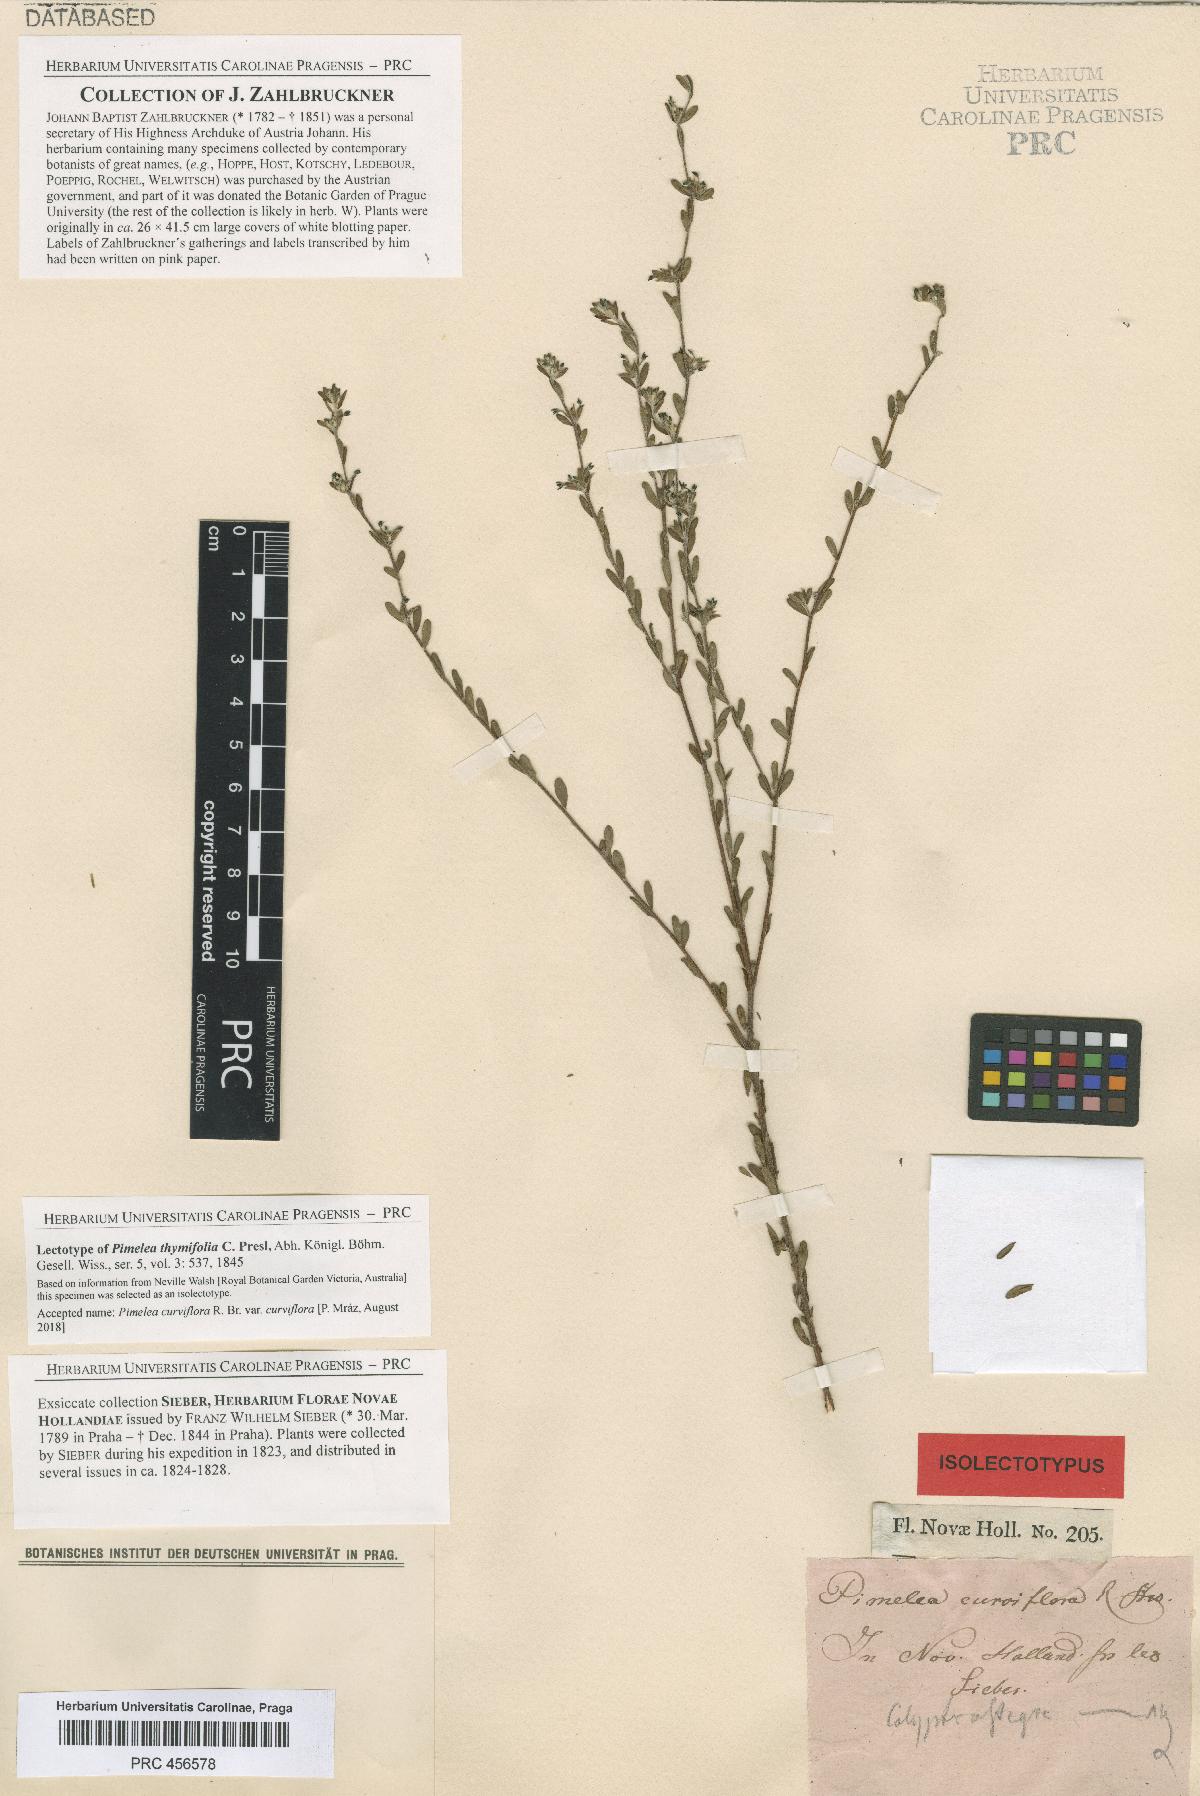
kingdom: Plantae
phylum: Tracheophyta
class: Magnoliopsida
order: Malvales
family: Thymelaeaceae
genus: Pimelea
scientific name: Pimelea curviflora
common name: Curved riceflower
